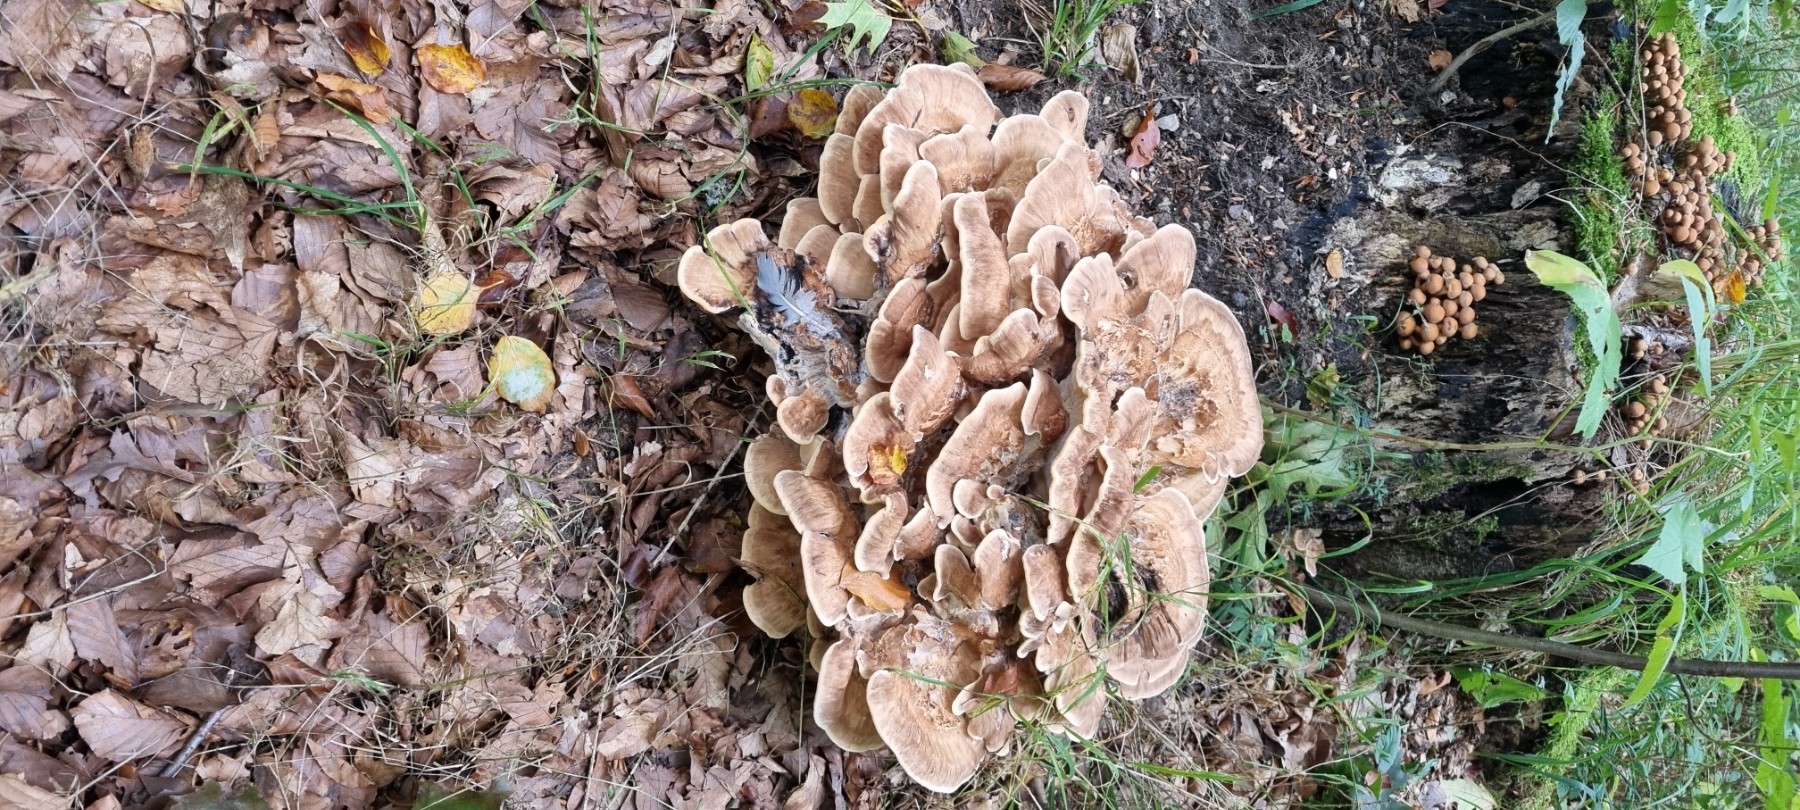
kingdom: Fungi
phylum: Basidiomycota
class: Agaricomycetes
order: Polyporales
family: Meripilaceae
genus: Meripilus
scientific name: Meripilus giganteus
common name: kæmpeporesvamp
